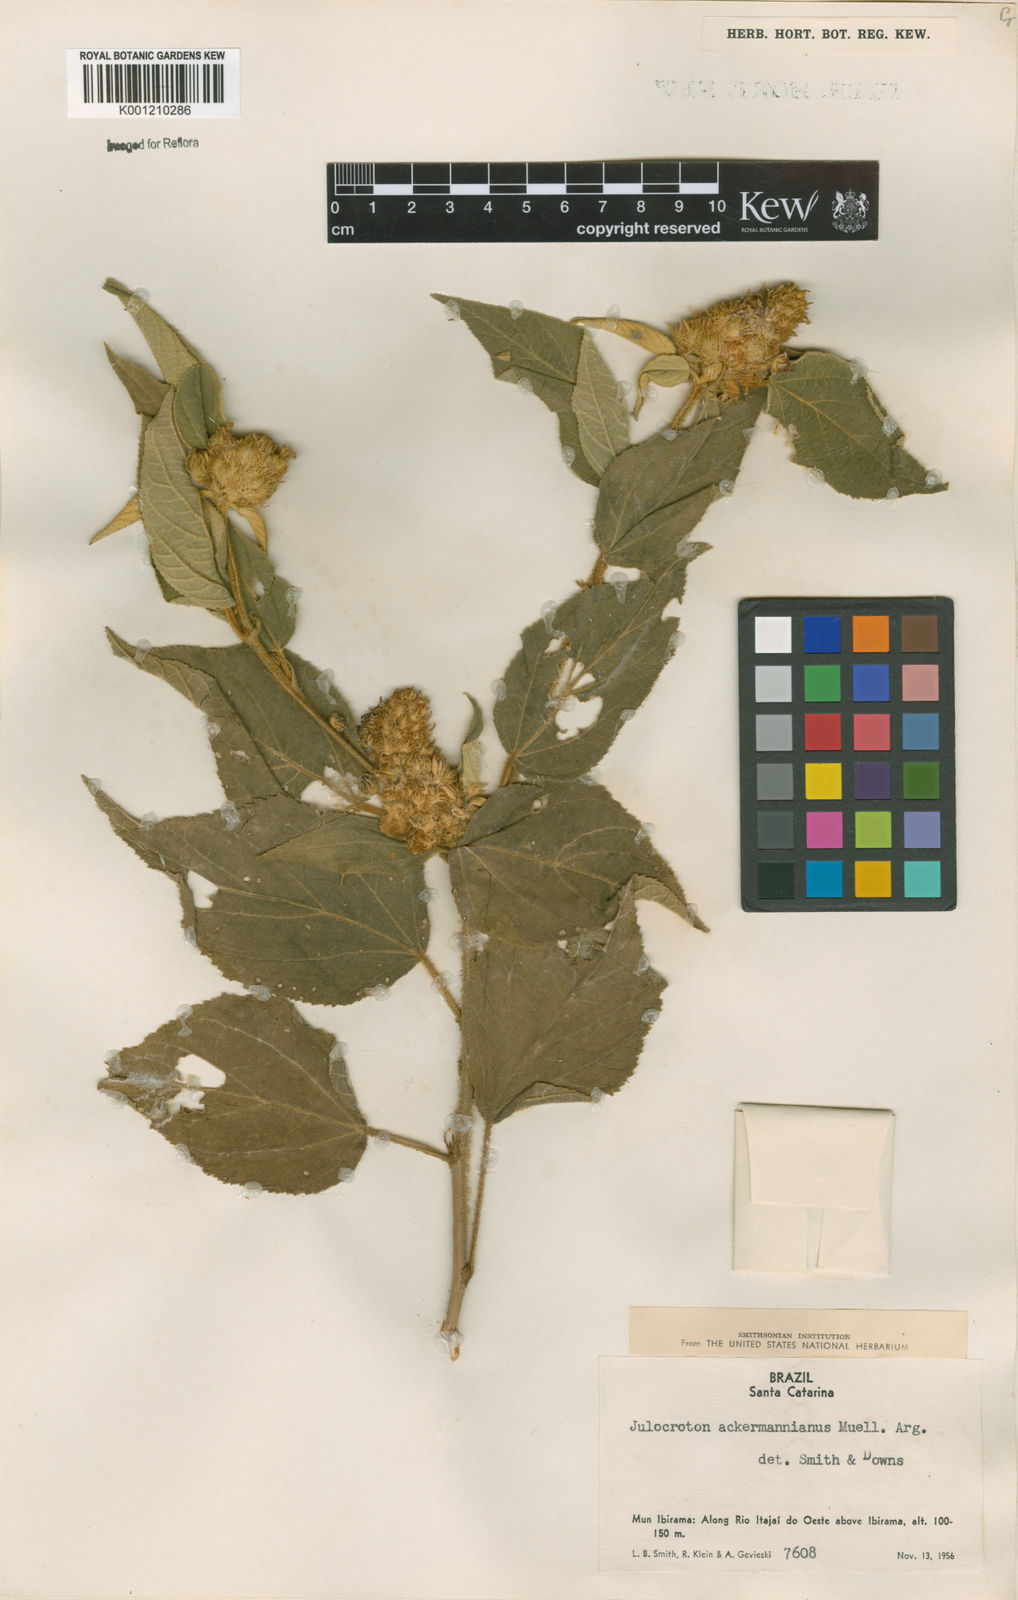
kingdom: Plantae
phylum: Tracheophyta
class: Magnoliopsida
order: Malpighiales
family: Euphorbiaceae
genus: Croton
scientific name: Croton
